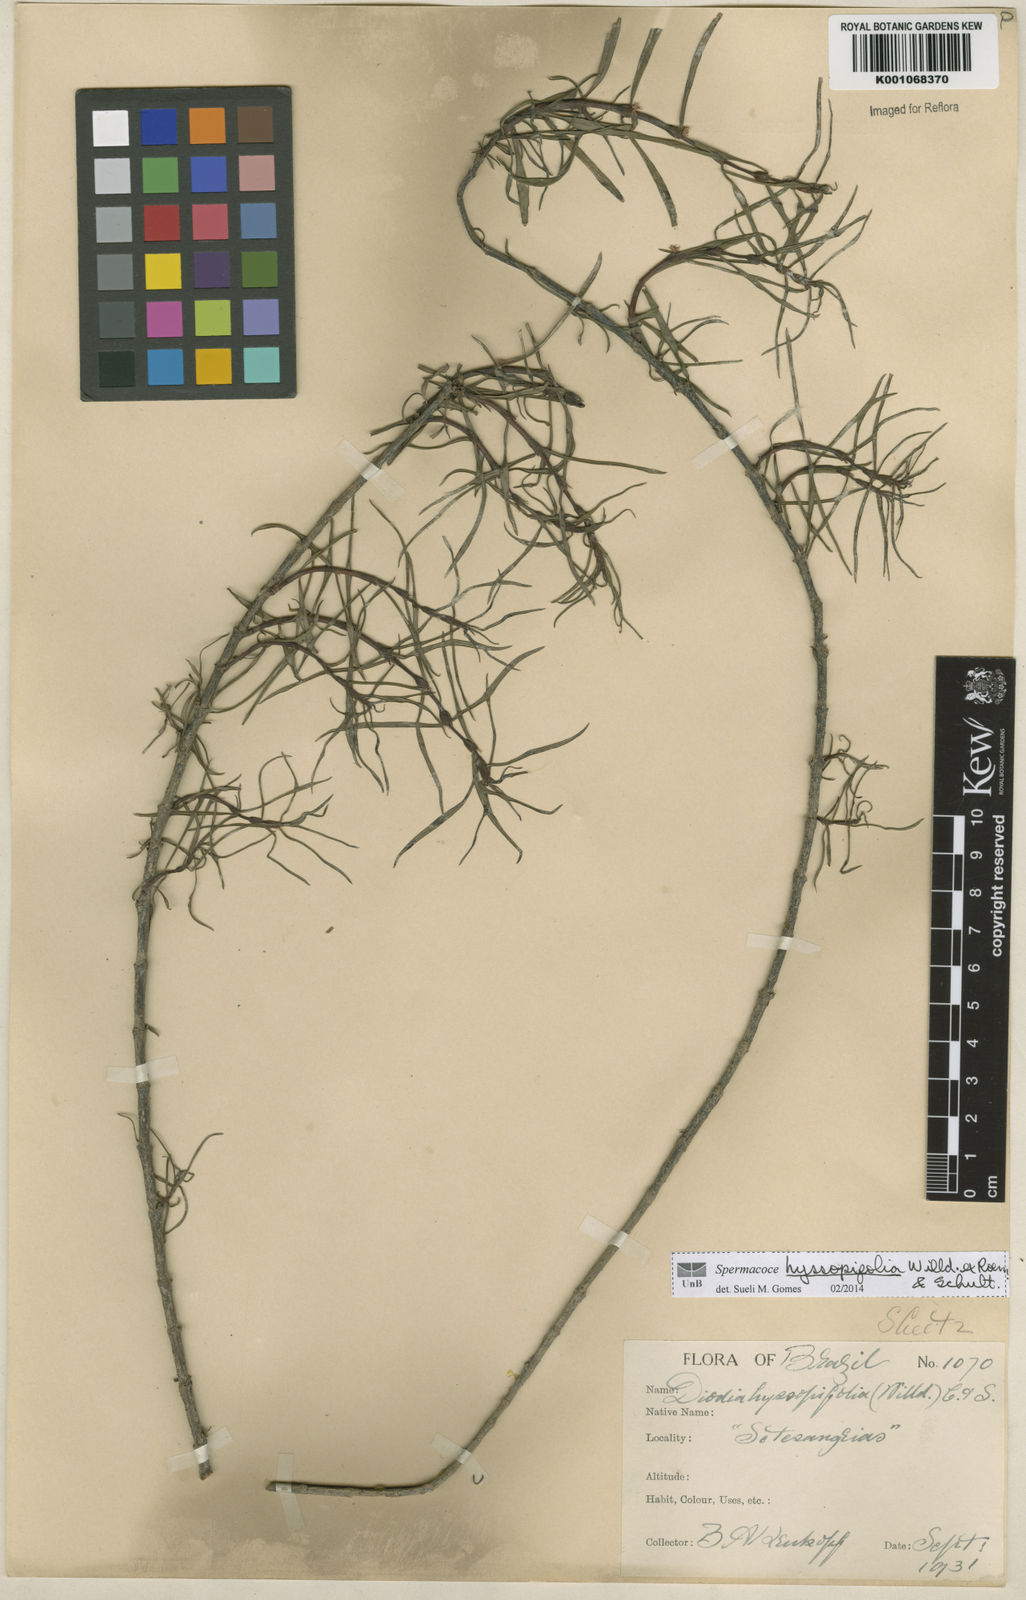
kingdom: Plantae
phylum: Tracheophyta
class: Magnoliopsida
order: Gentianales
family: Rubiaceae
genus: Spermacoce
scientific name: Spermacoce
